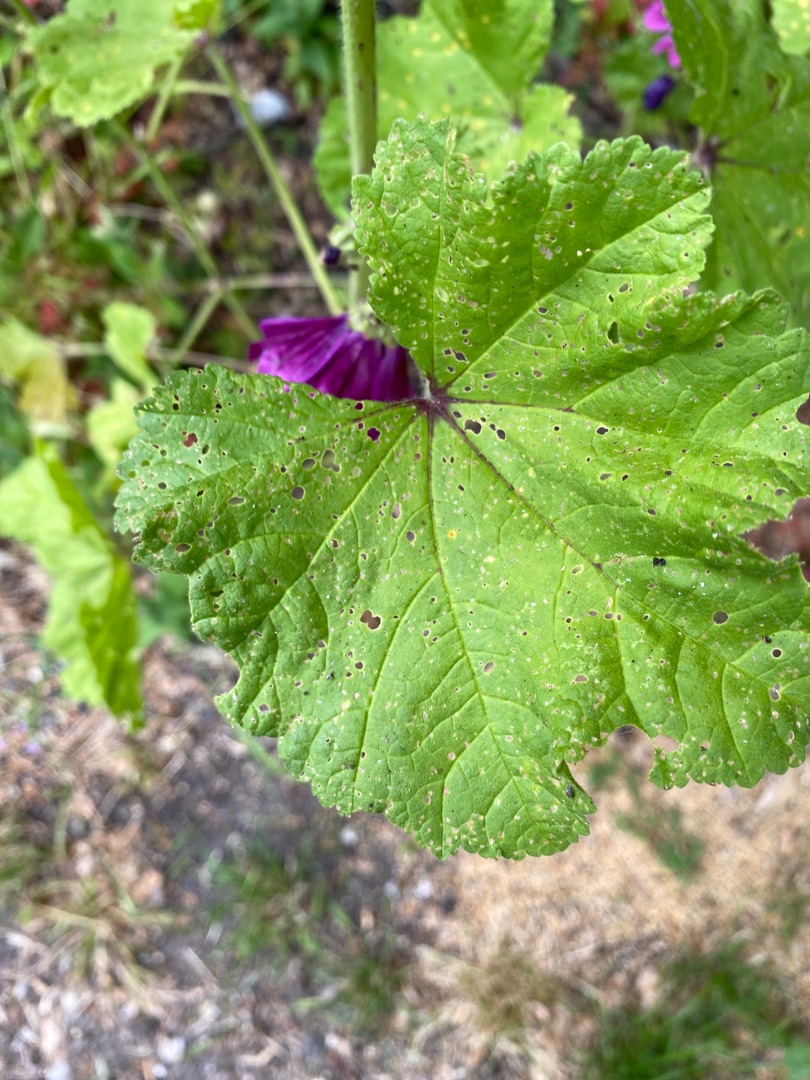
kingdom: Plantae
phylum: Tracheophyta
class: Magnoliopsida
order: Malvales
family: Malvaceae
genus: Malva
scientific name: Malva sylvestris
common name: Almindelig katost
